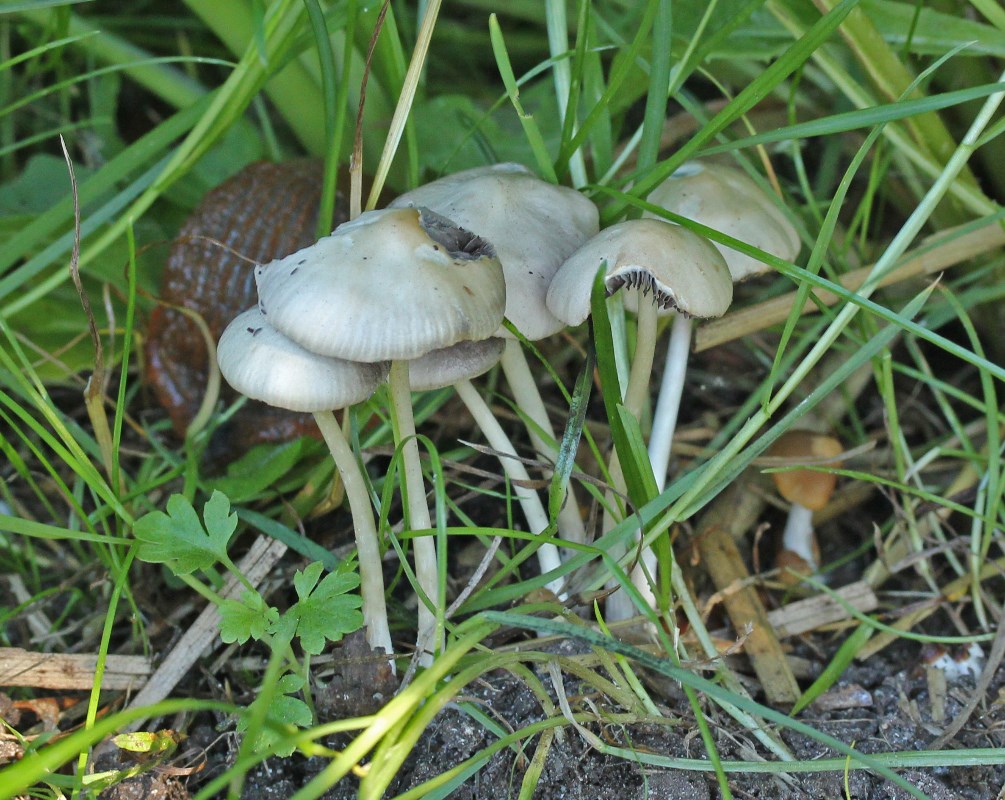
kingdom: Fungi
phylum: Basidiomycota
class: Agaricomycetes
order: Agaricales
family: Psathyrellaceae
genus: Psathyrella
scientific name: Psathyrella pseudogracilis
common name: slank mørkhat
